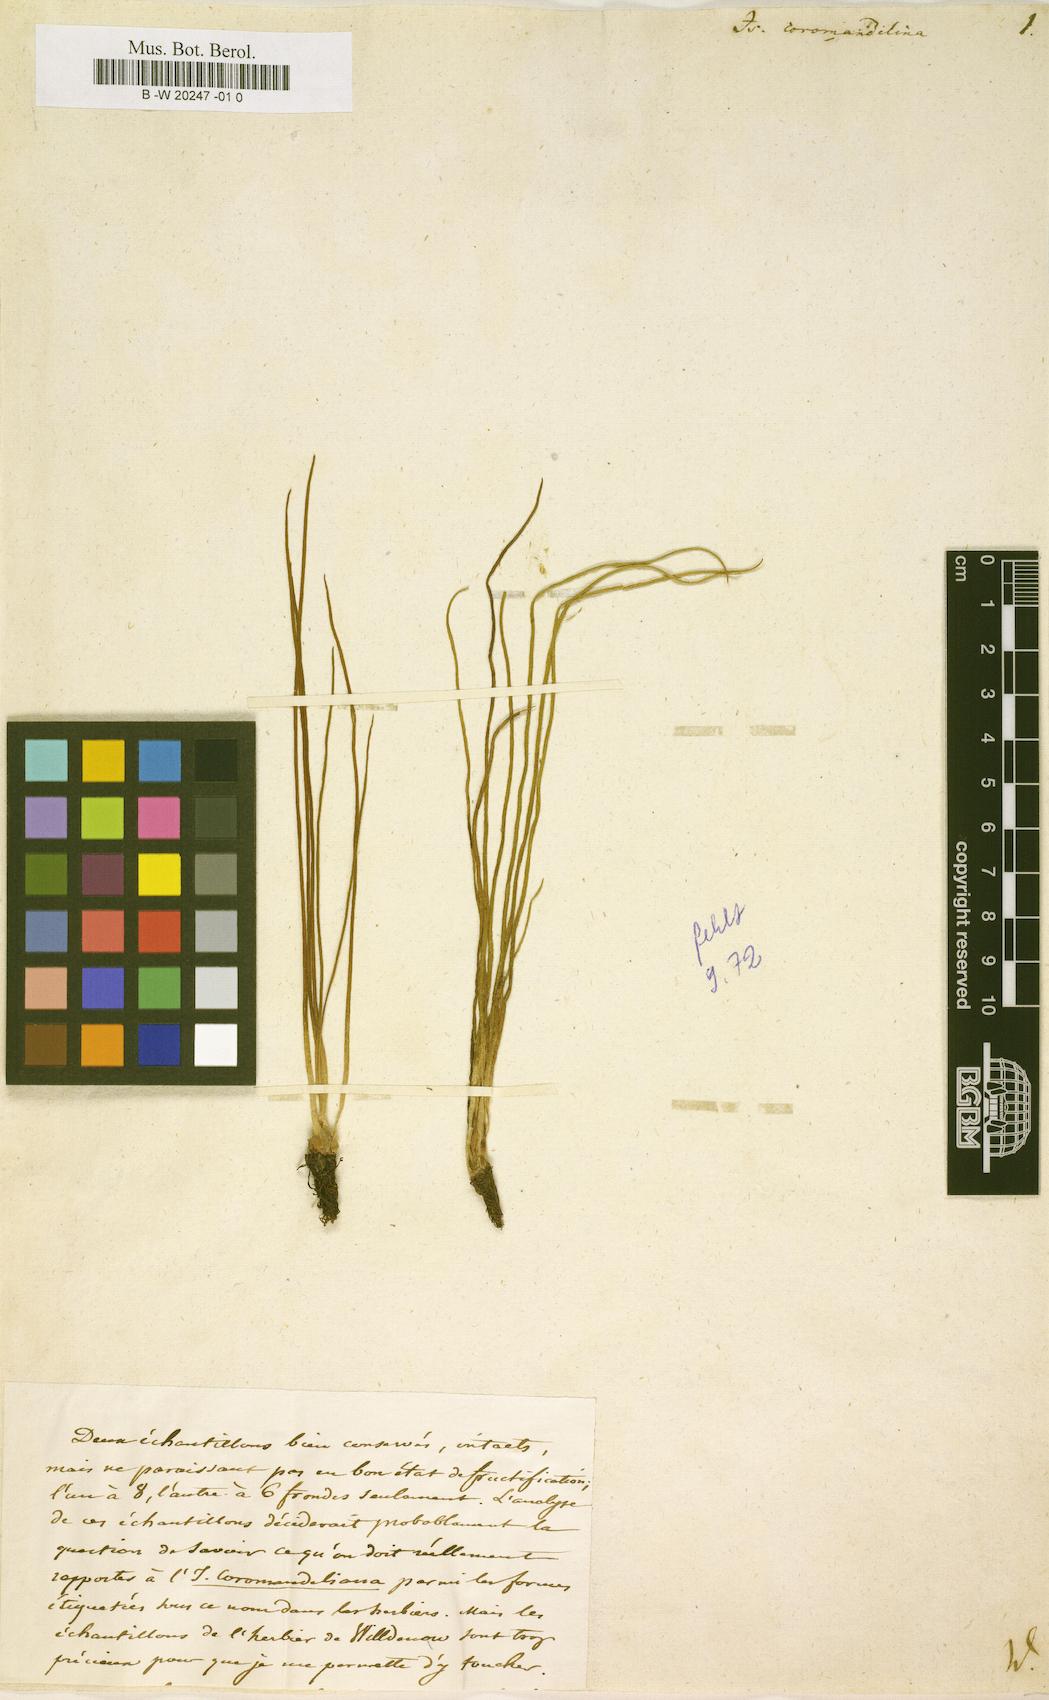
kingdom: Plantae
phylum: Tracheophyta
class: Lycopodiopsida
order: Isoetales
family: Isoetaceae
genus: Isoetes
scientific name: Isoetes coromandelina
